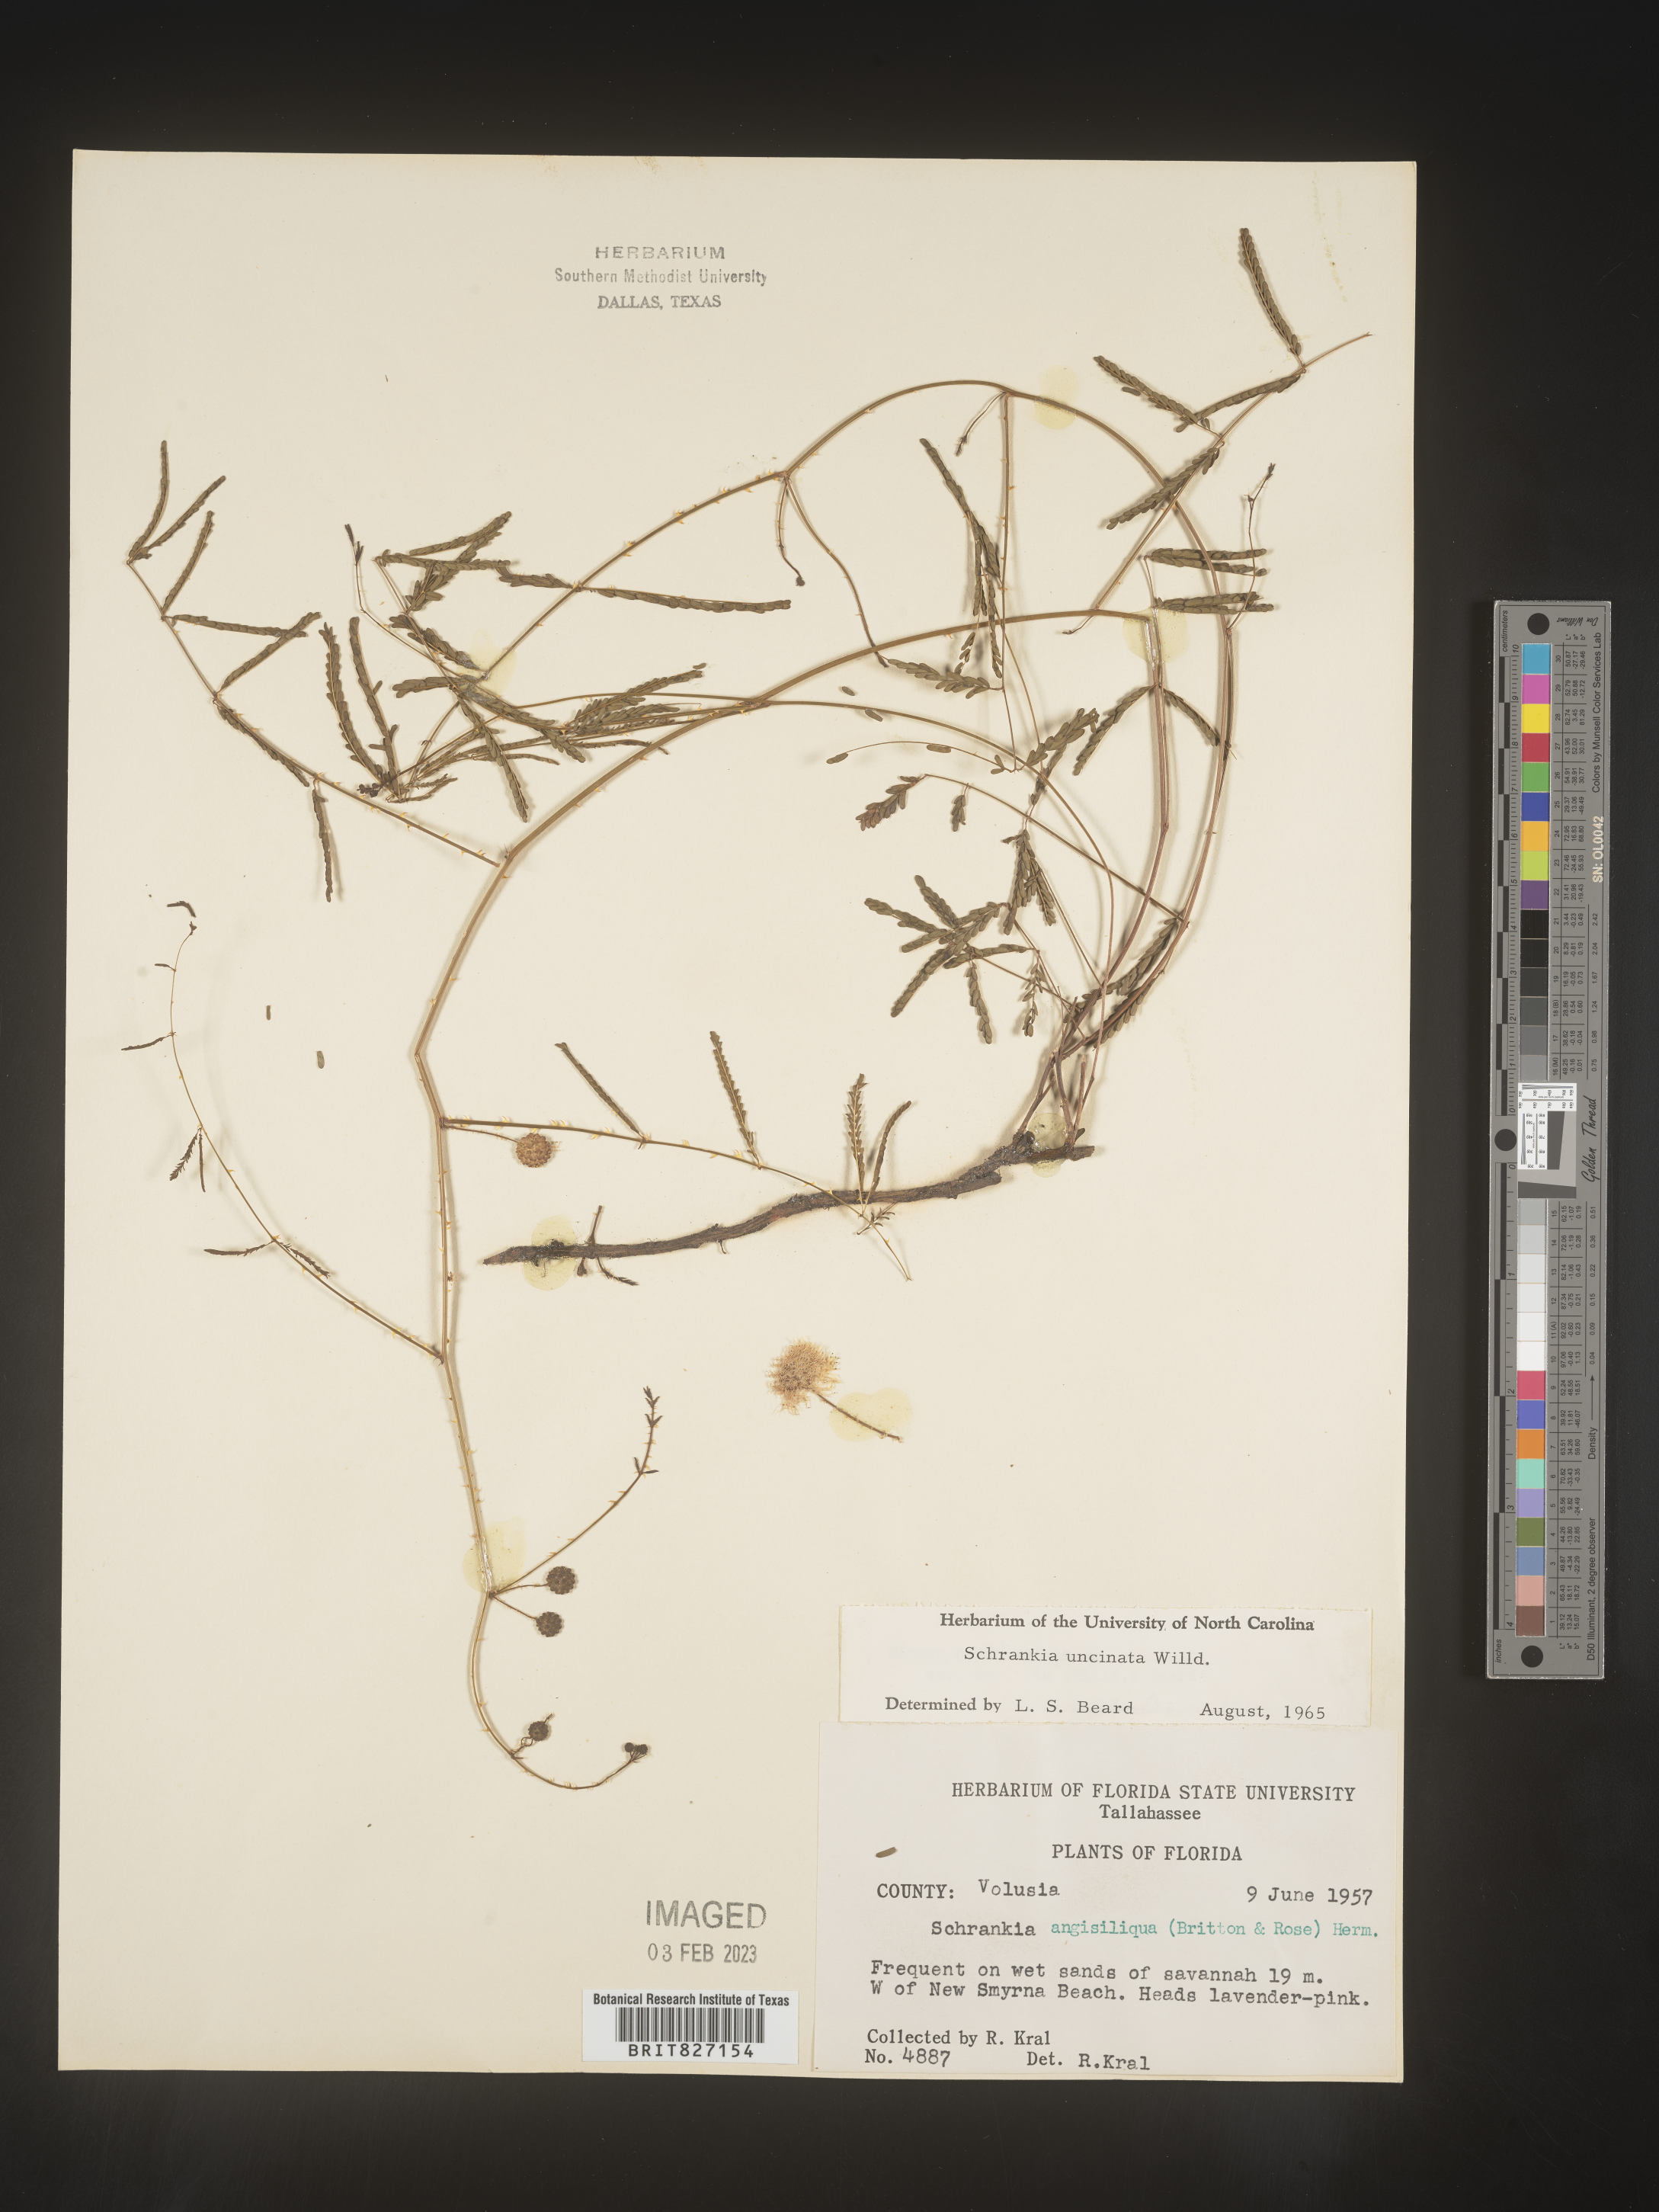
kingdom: Plantae
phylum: Tracheophyta
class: Magnoliopsida
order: Fabales
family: Fabaceae
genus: Mimosa
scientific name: Mimosa quadrivalvis
